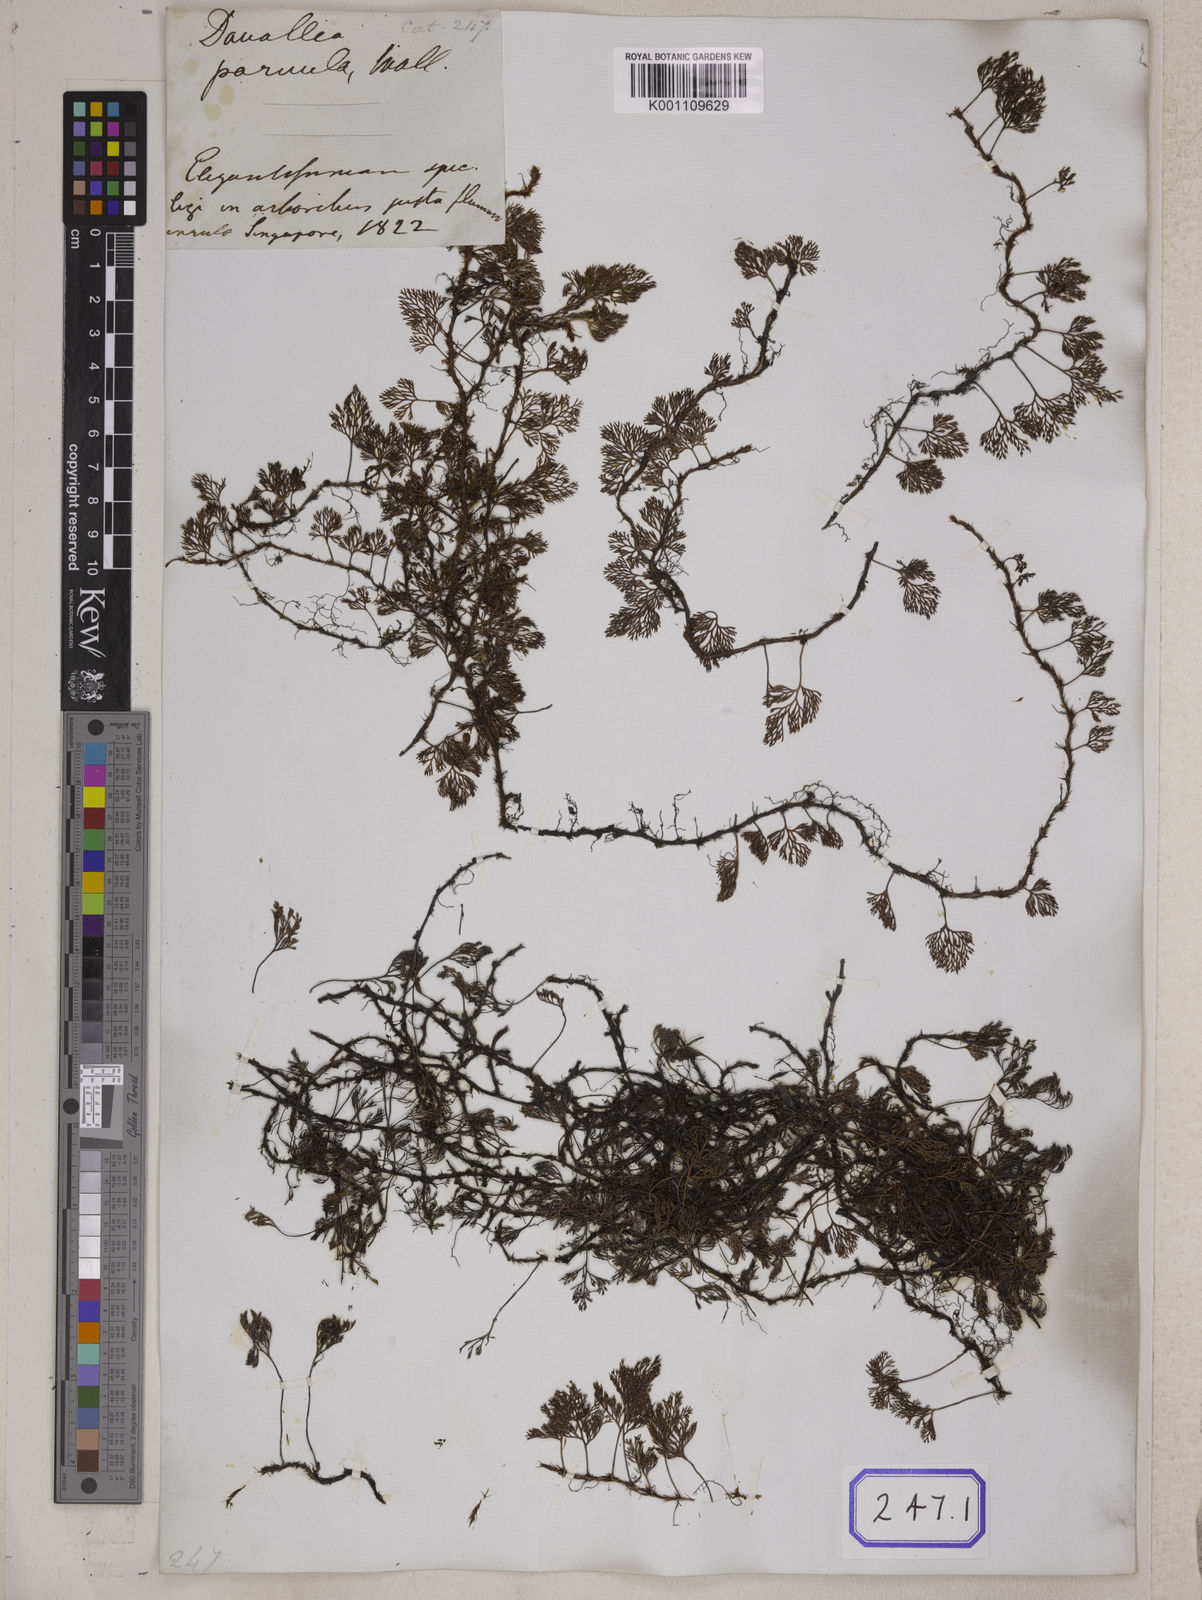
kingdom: Plantae
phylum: Tracheophyta
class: Polypodiopsida
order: Polypodiales
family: Davalliaceae
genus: Davallia
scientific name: Davallia parvula
